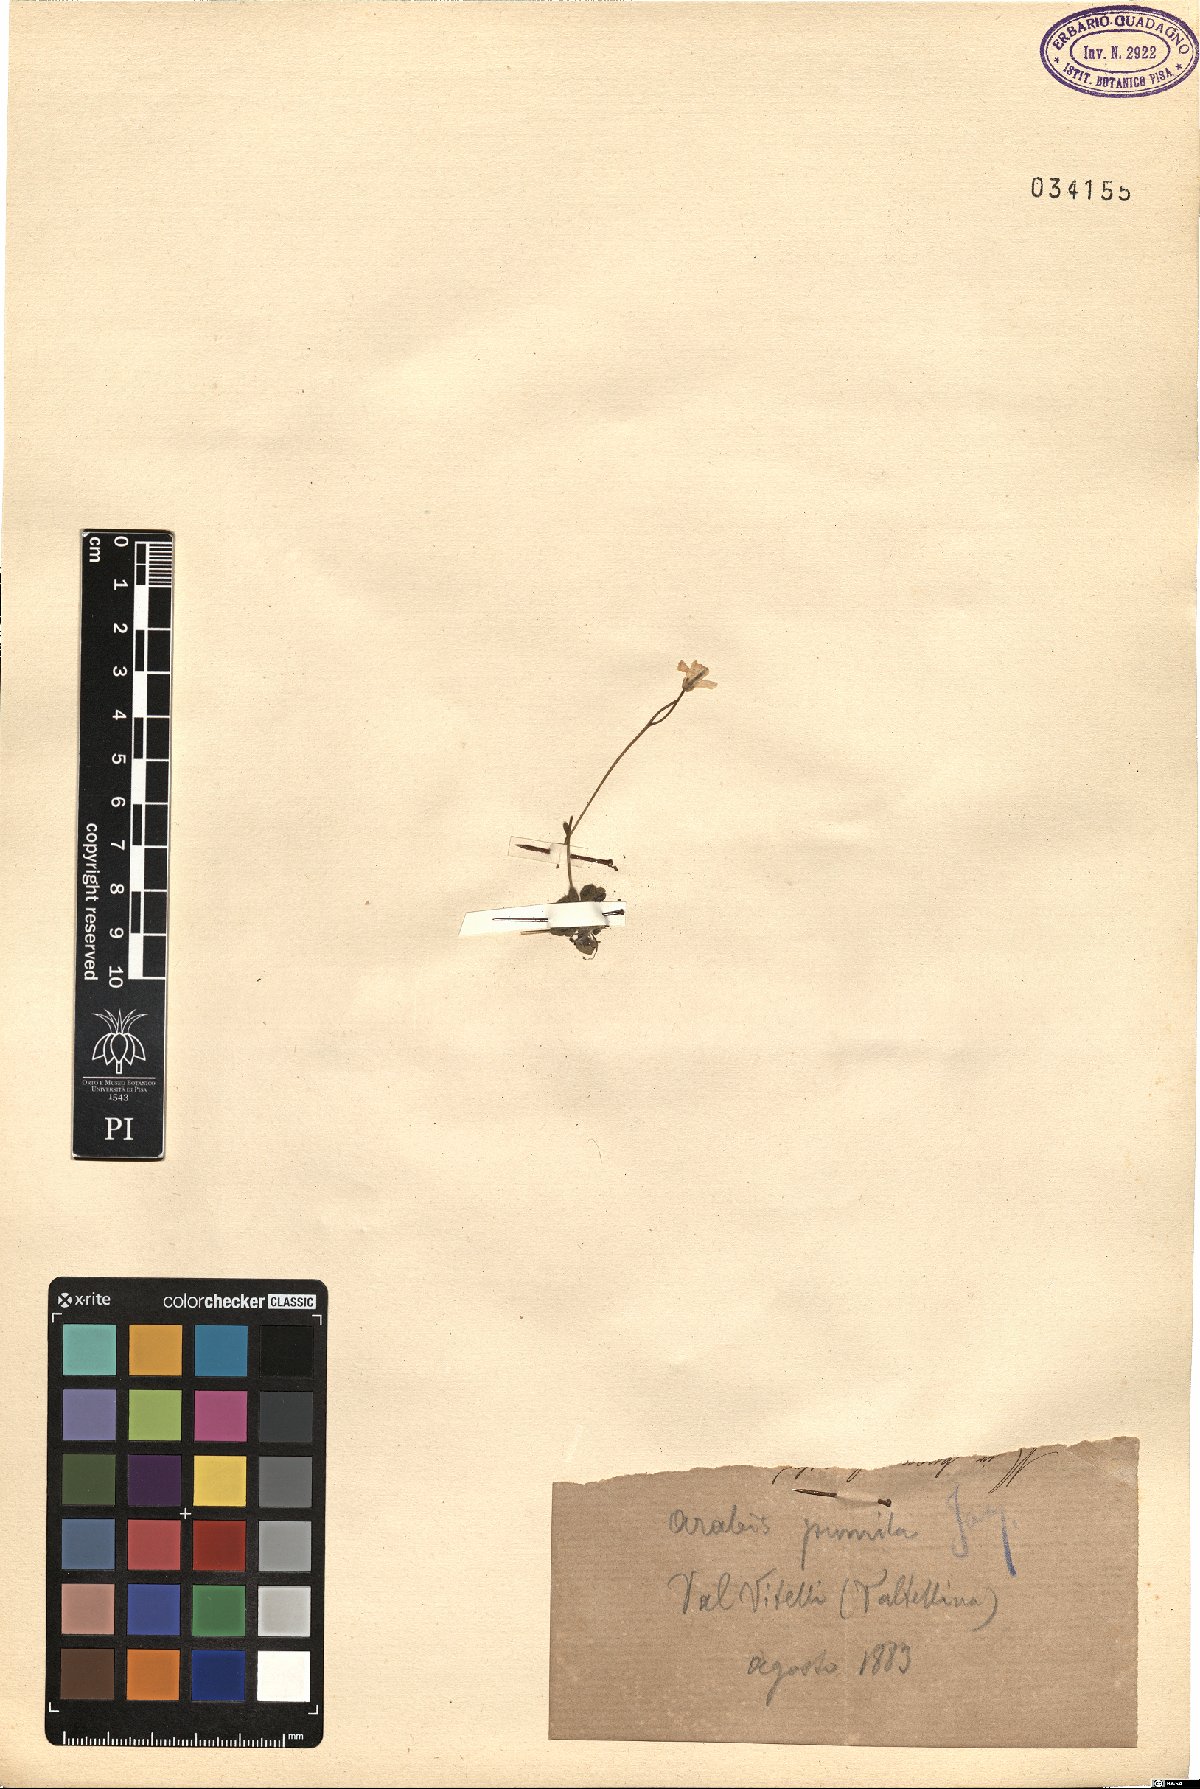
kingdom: Plantae
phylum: Tracheophyta
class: Magnoliopsida
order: Brassicales
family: Brassicaceae
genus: Arabis
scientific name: Arabis pumila
